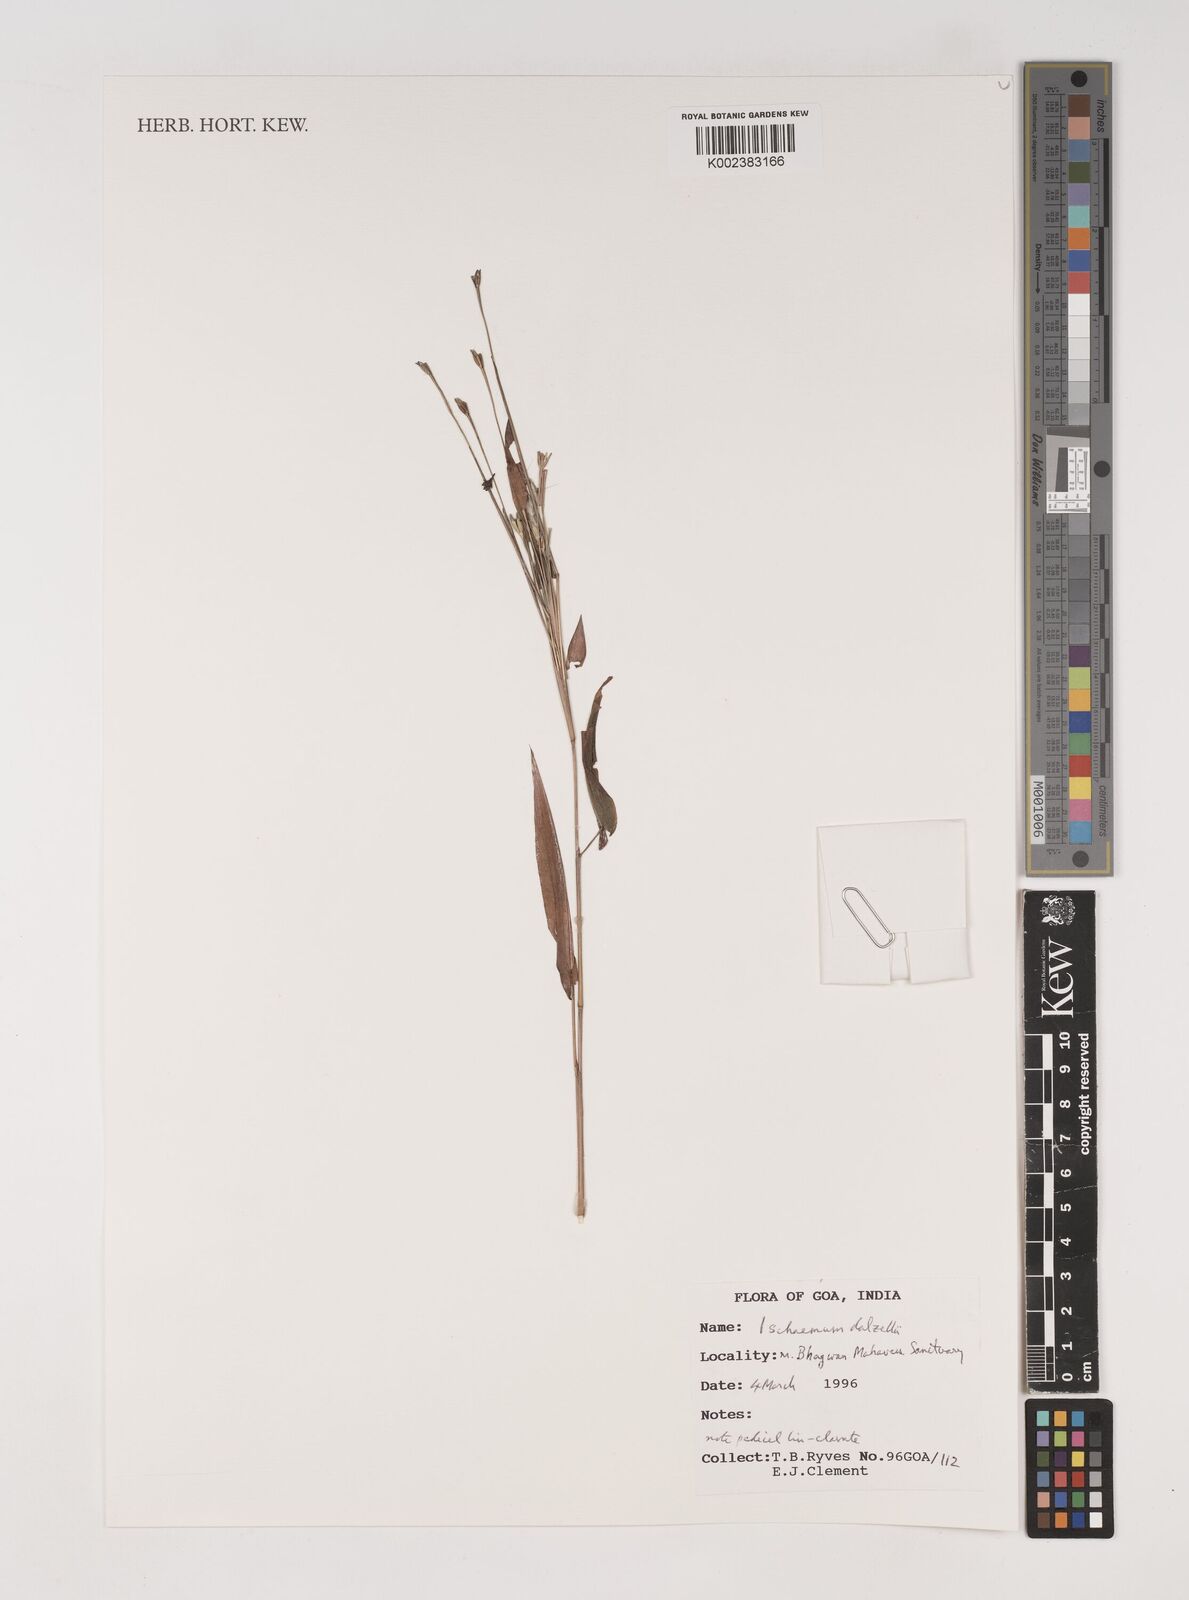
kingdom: Plantae
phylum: Tracheophyta
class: Liliopsida
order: Poales
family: Poaceae
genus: Ischaemum
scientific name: Ischaemum dalzellii
